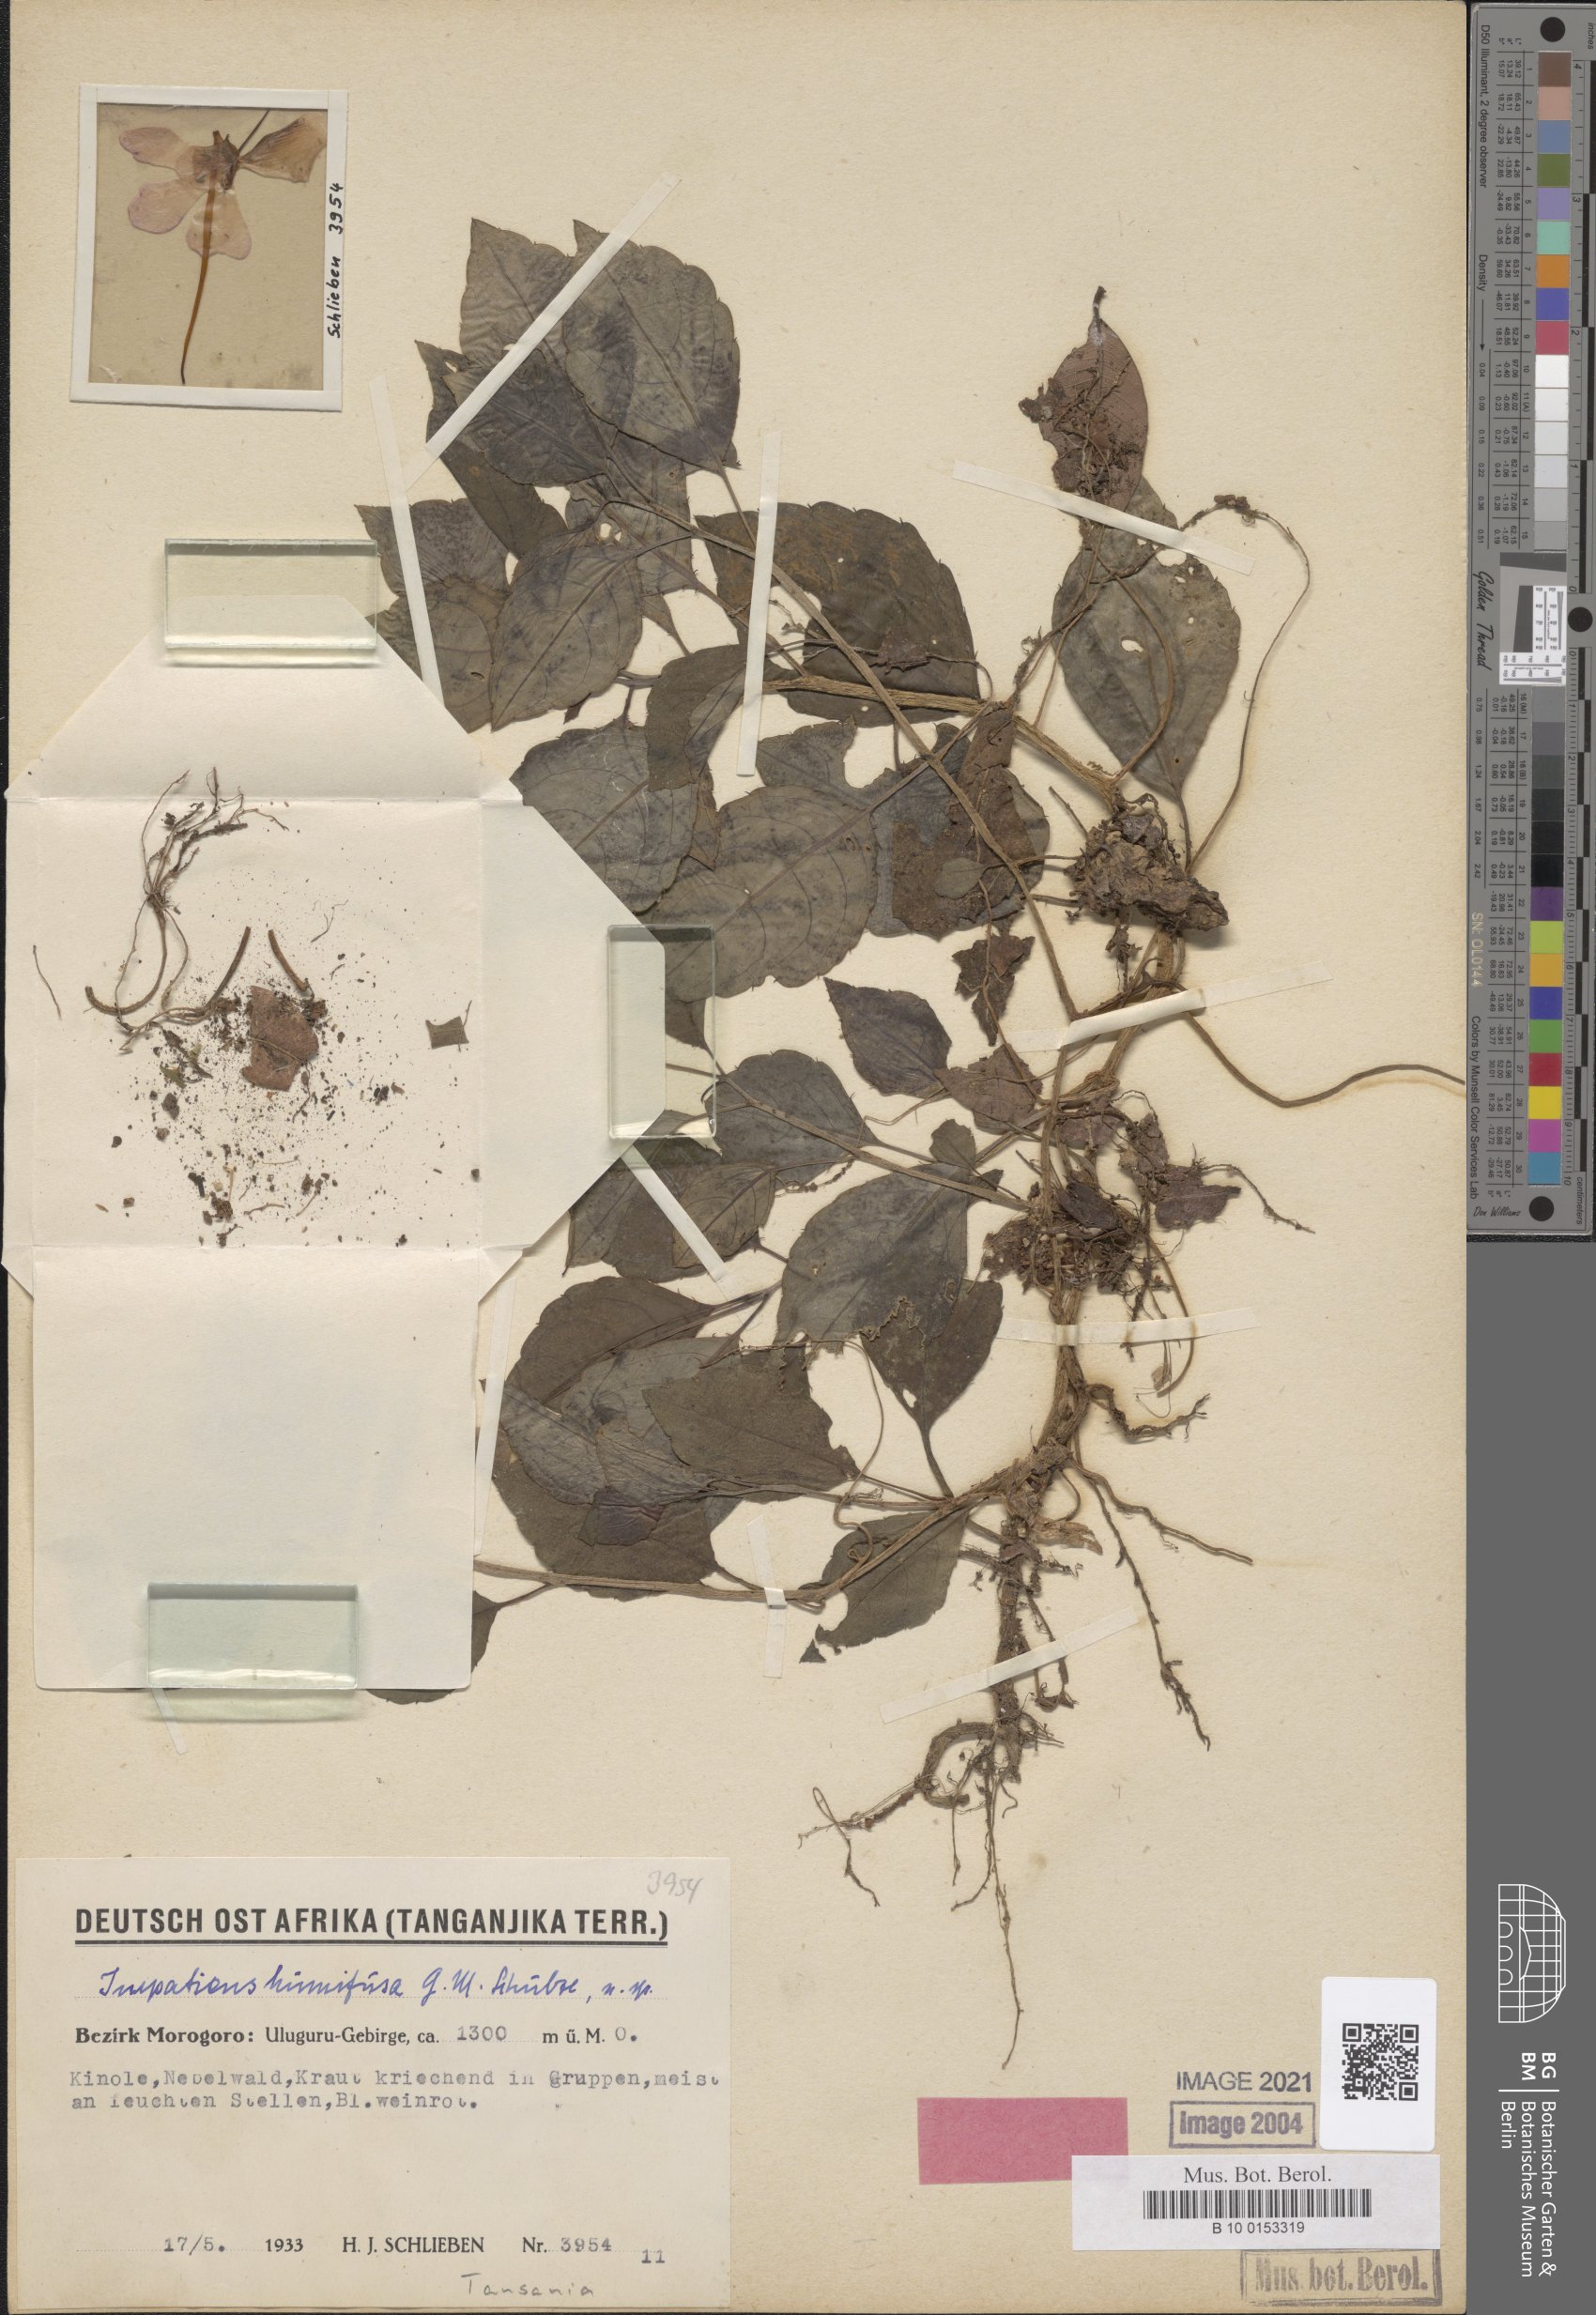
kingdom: Plantae
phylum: Tracheophyta
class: Magnoliopsida
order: Ericales
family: Balsaminaceae
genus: Impatiens
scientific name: Impatiens humifusa
